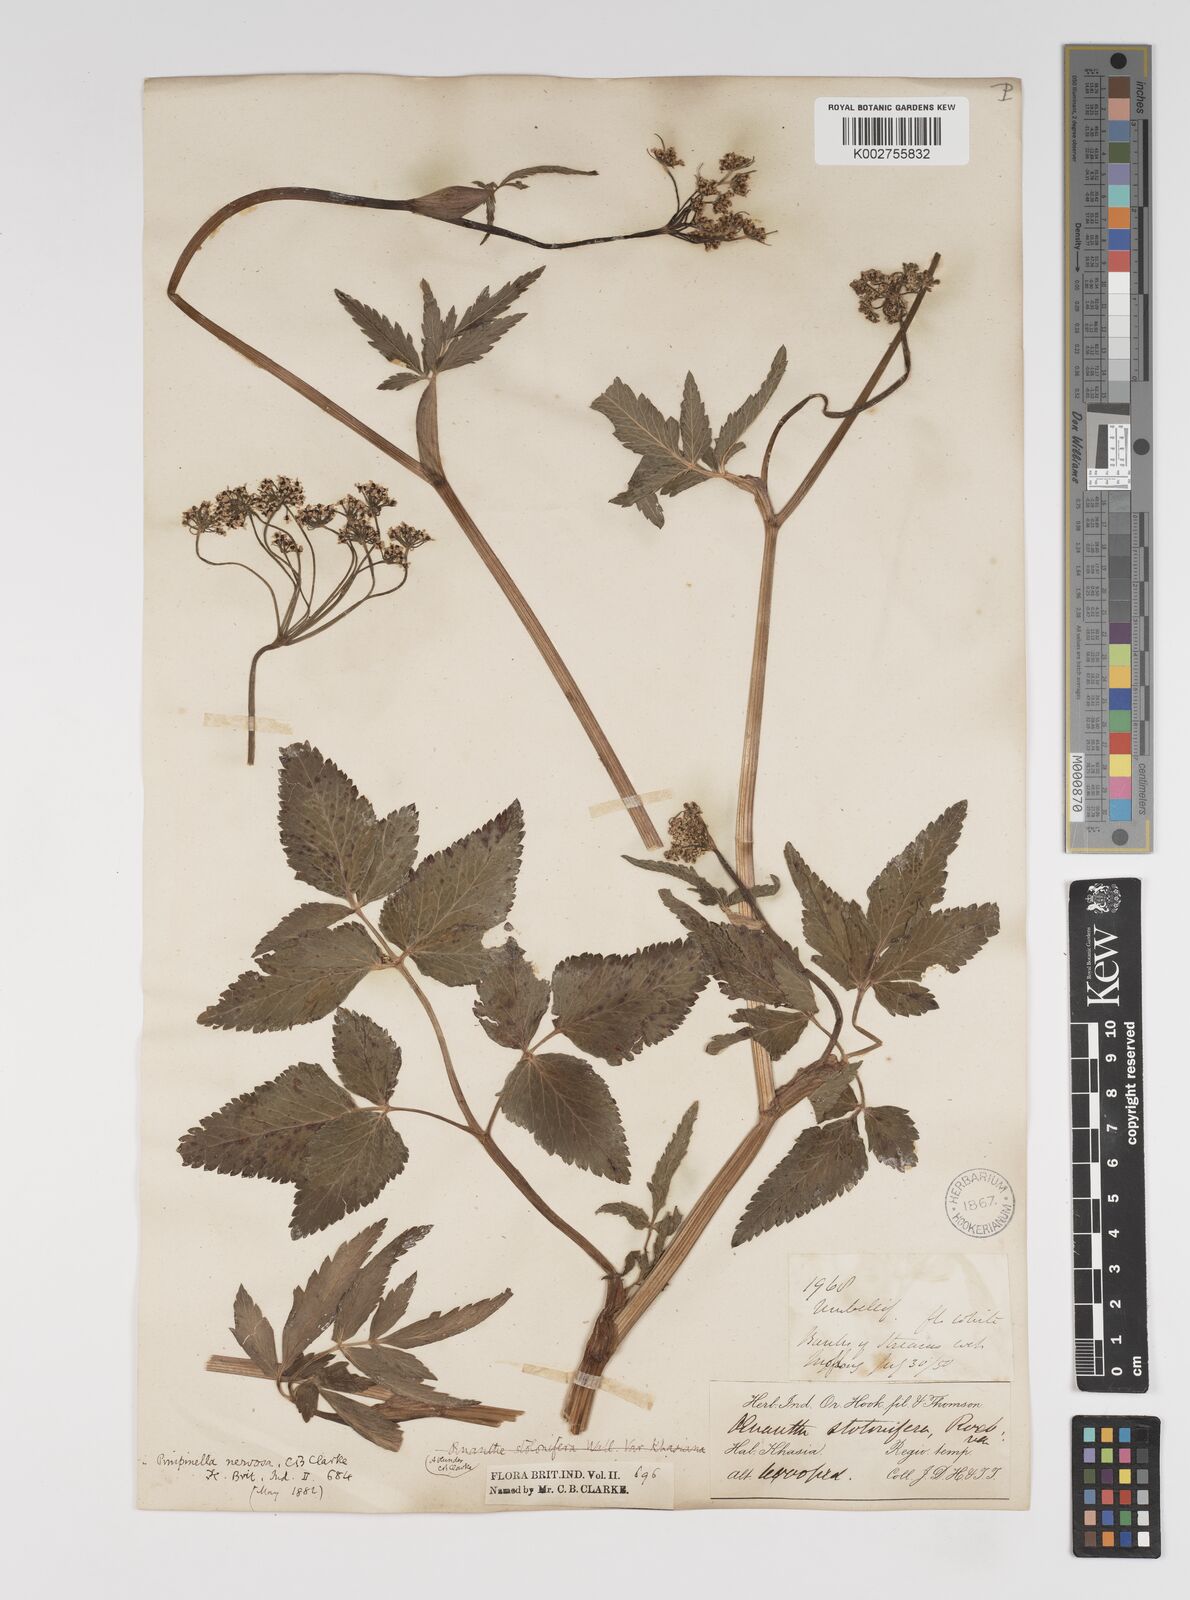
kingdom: Plantae
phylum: Tracheophyta
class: Magnoliopsida
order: Apiales
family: Apiaceae
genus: Pimpinella
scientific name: Pimpinella nervosa
